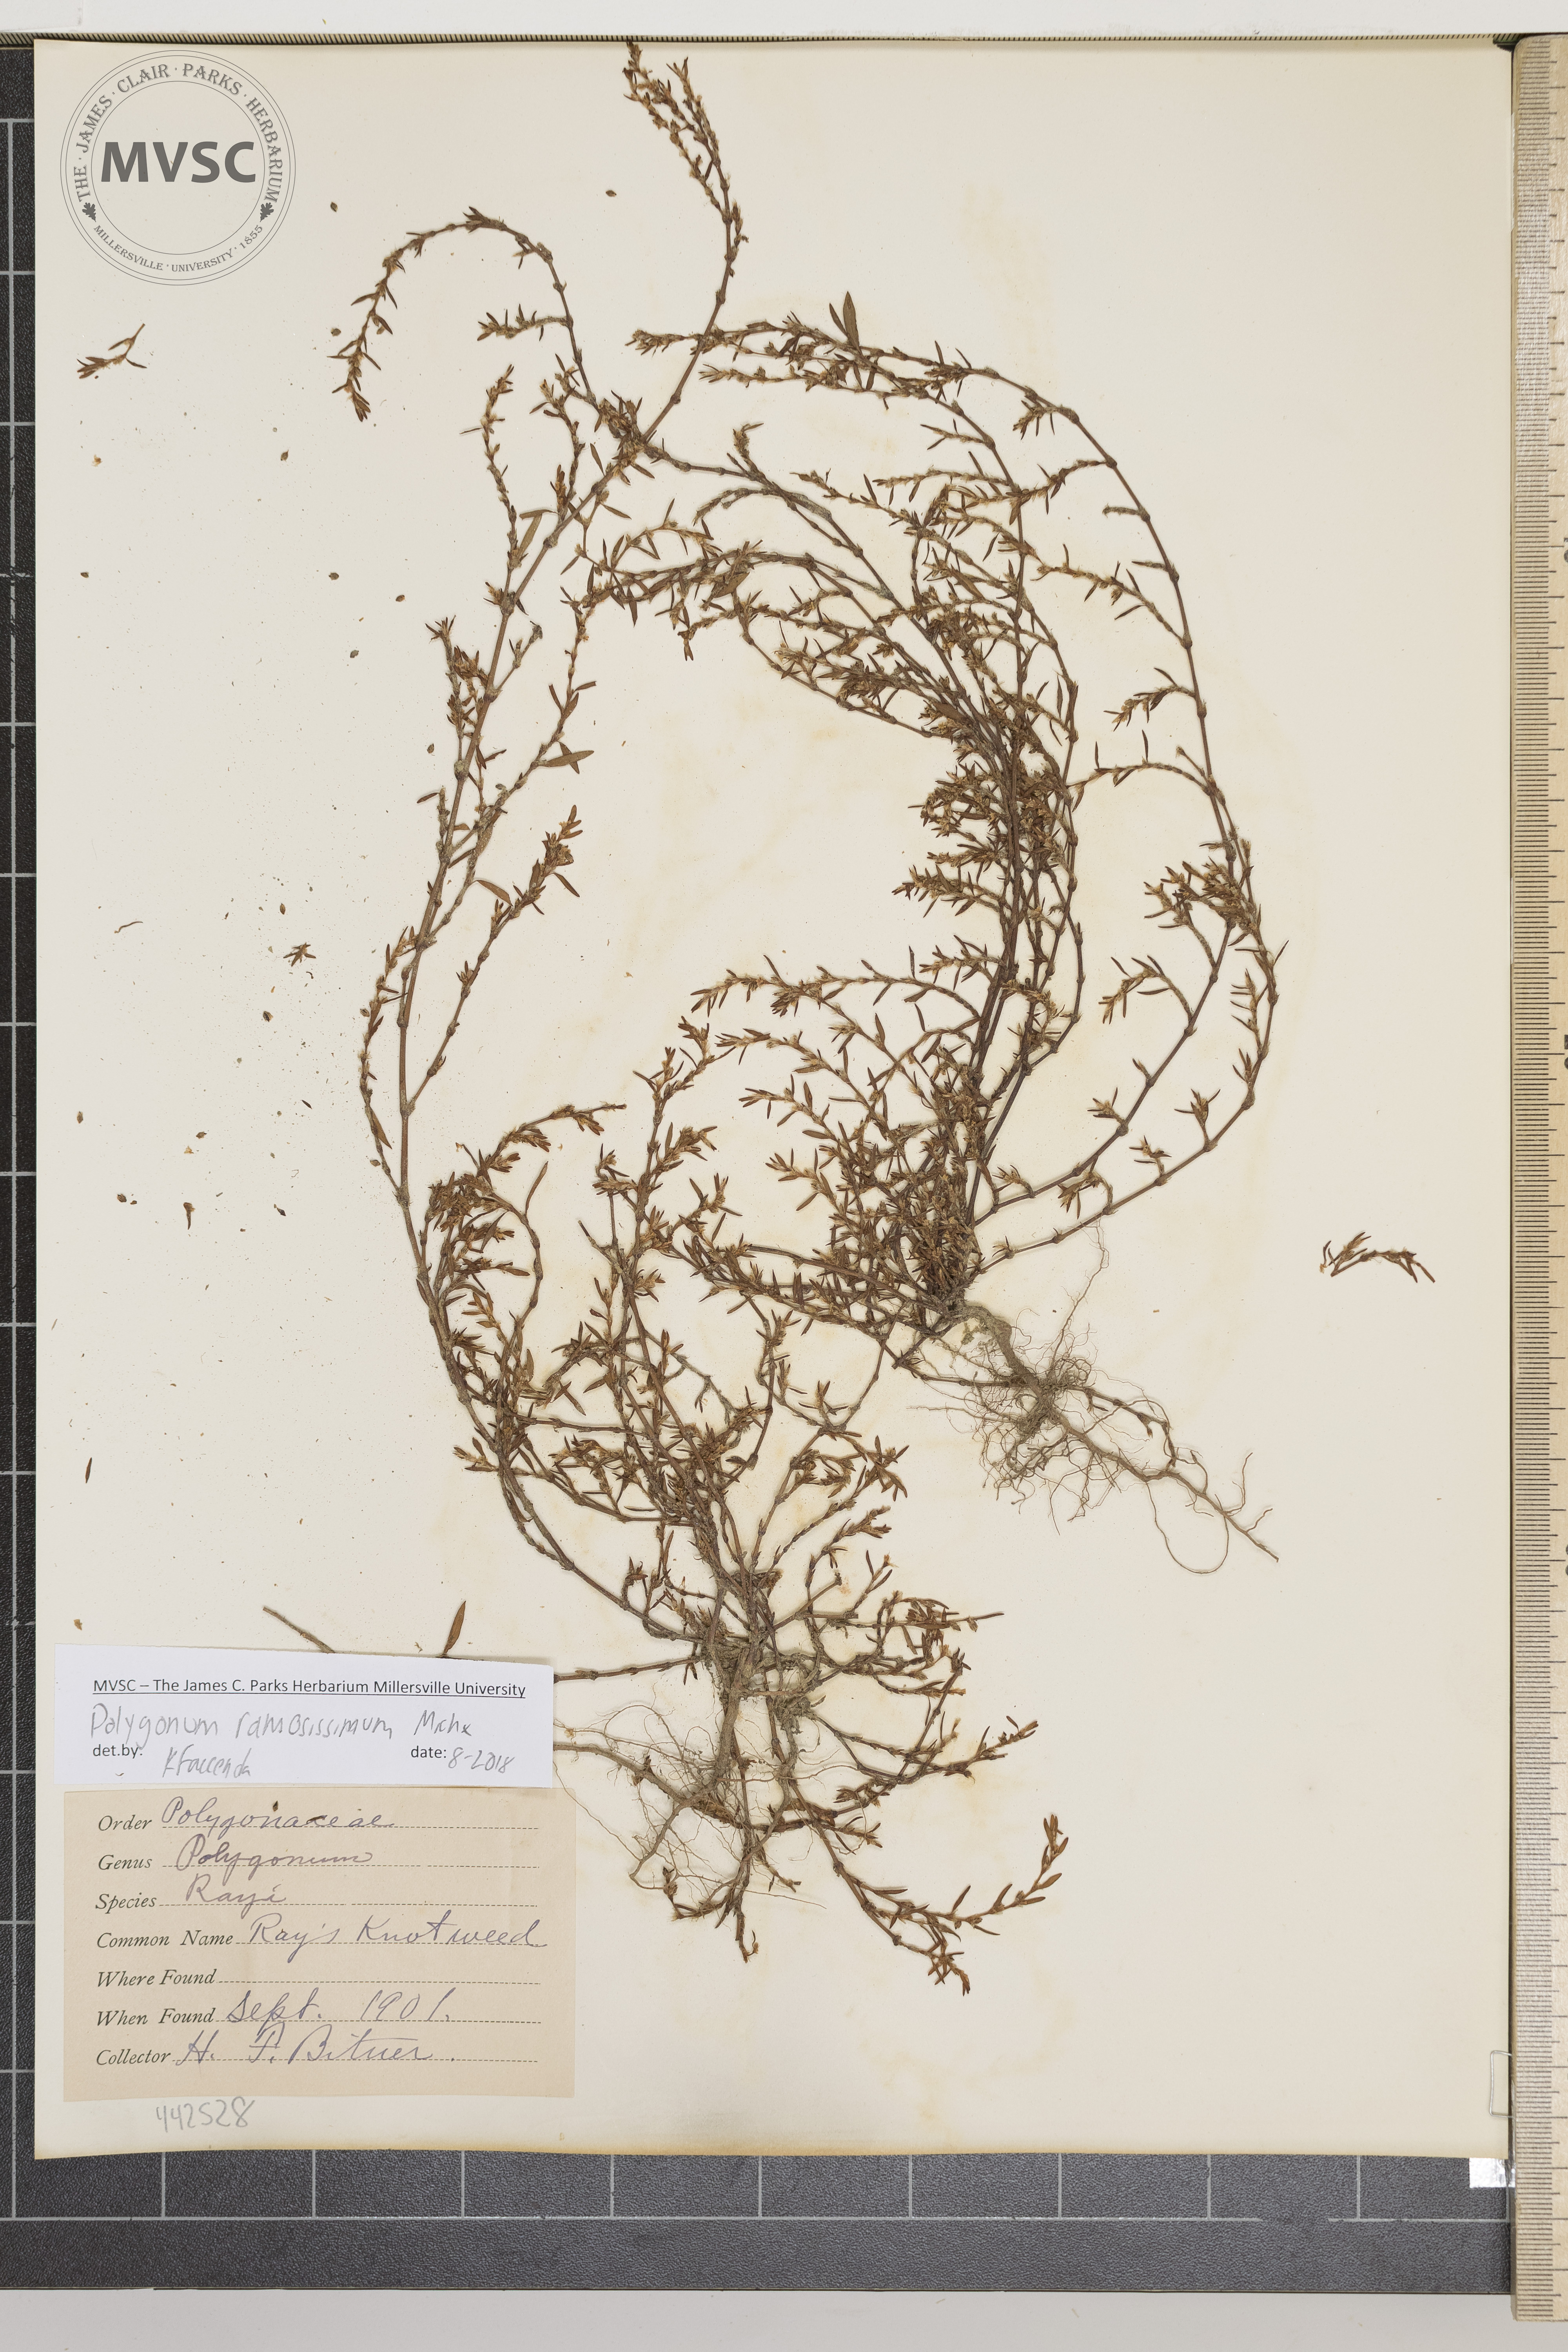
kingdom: Plantae
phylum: Tracheophyta
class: Magnoliopsida
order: Caryophyllales
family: Polygonaceae
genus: Polygonum
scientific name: Polygonum aviculare
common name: Prostrate knotweed
